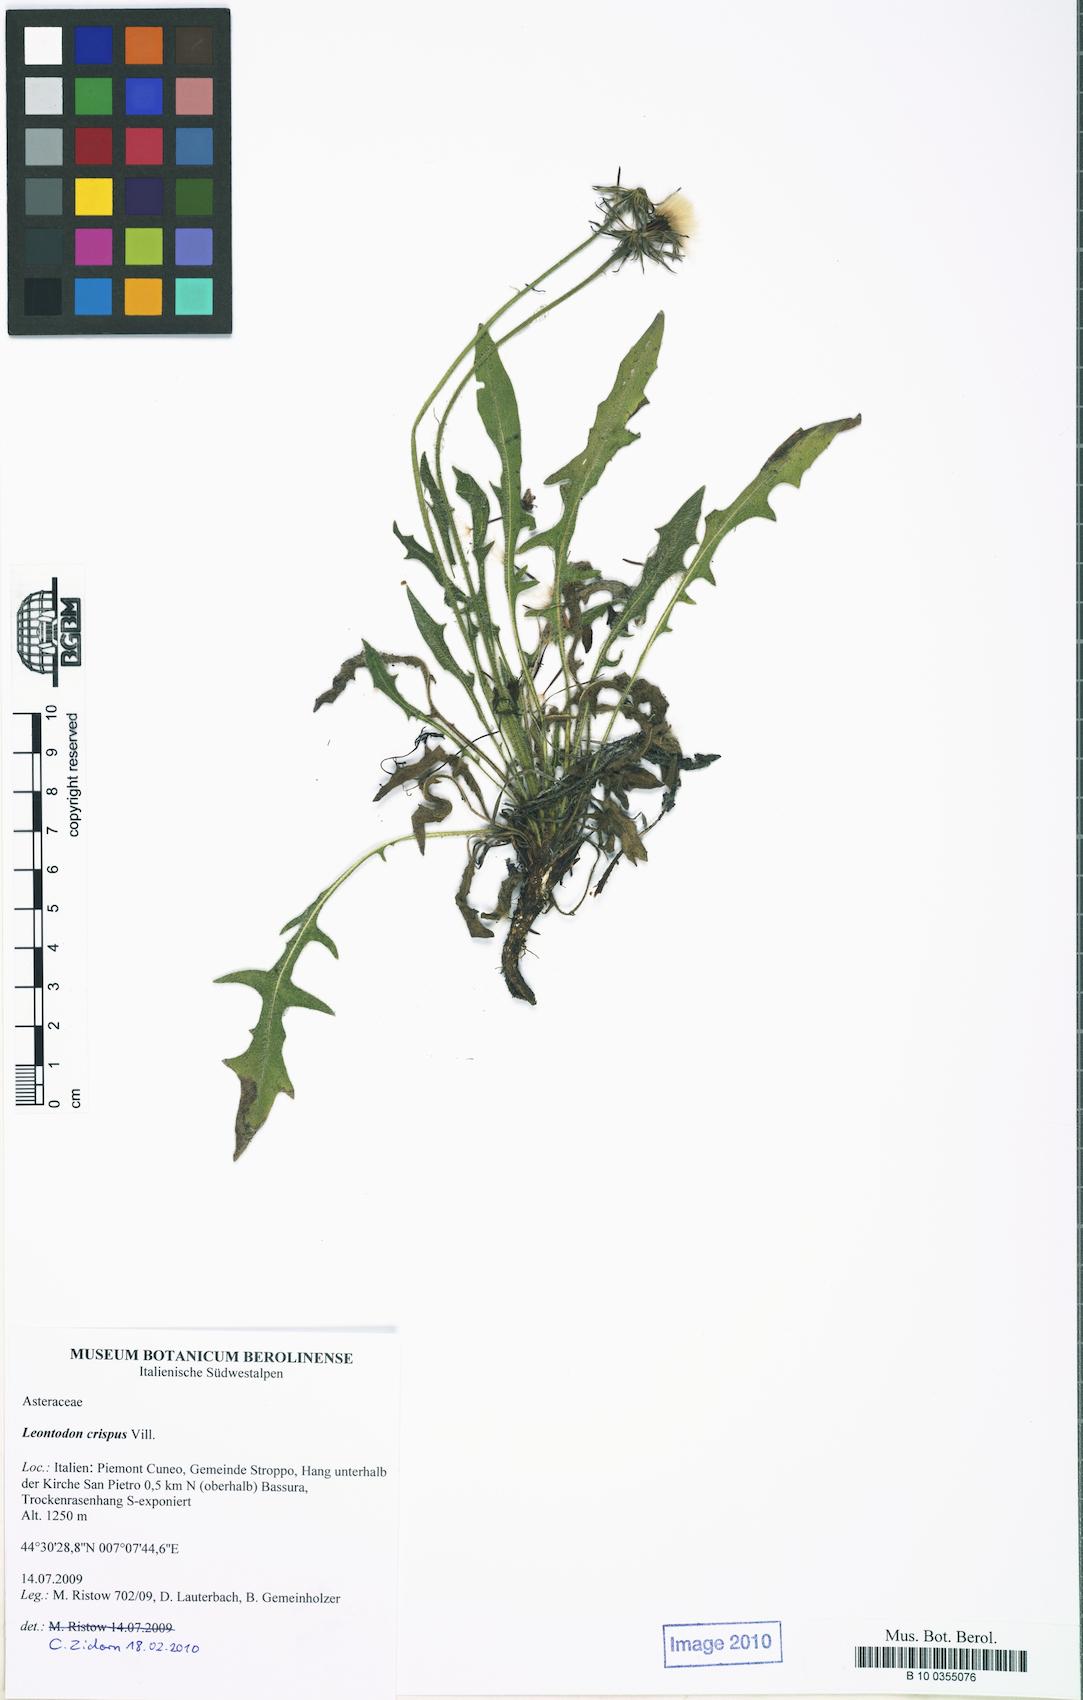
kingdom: Plantae
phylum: Tracheophyta
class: Magnoliopsida
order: Asterales
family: Asteraceae
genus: Leontodon
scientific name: Leontodon crispus
